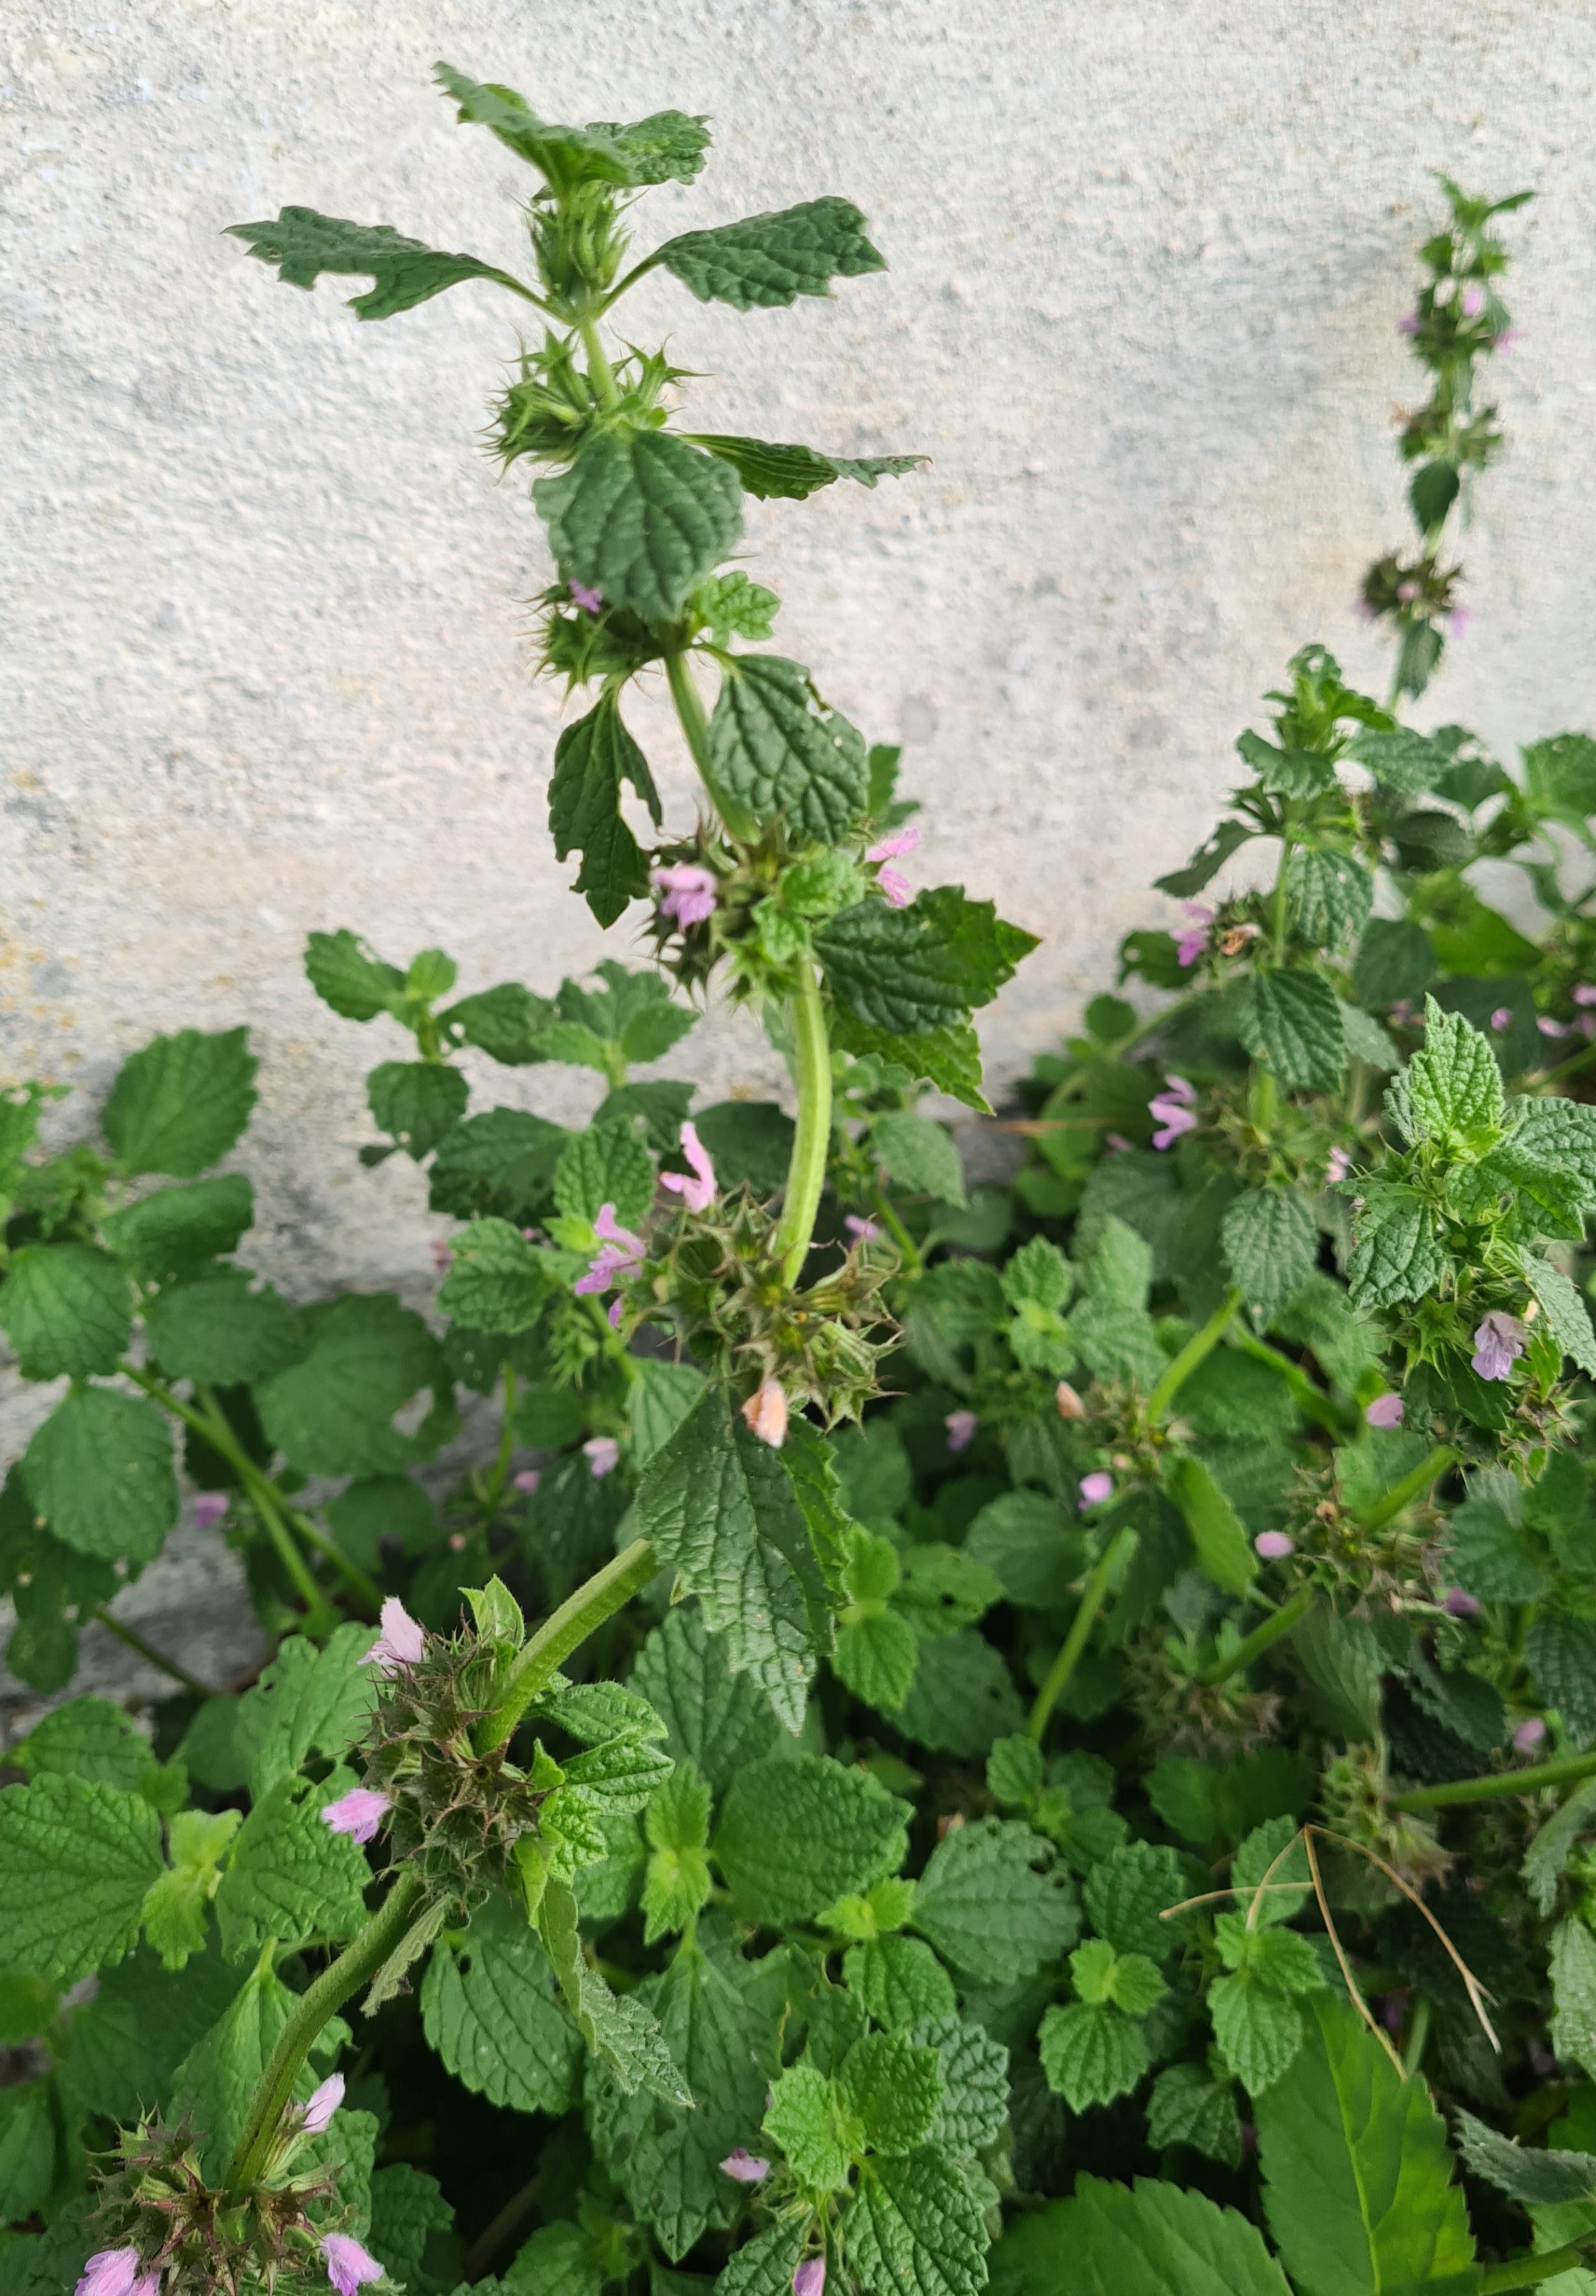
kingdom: Plantae
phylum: Tracheophyta
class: Magnoliopsida
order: Lamiales
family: Lamiaceae
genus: Ballota
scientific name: Ballota nigra
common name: Tandbæger
